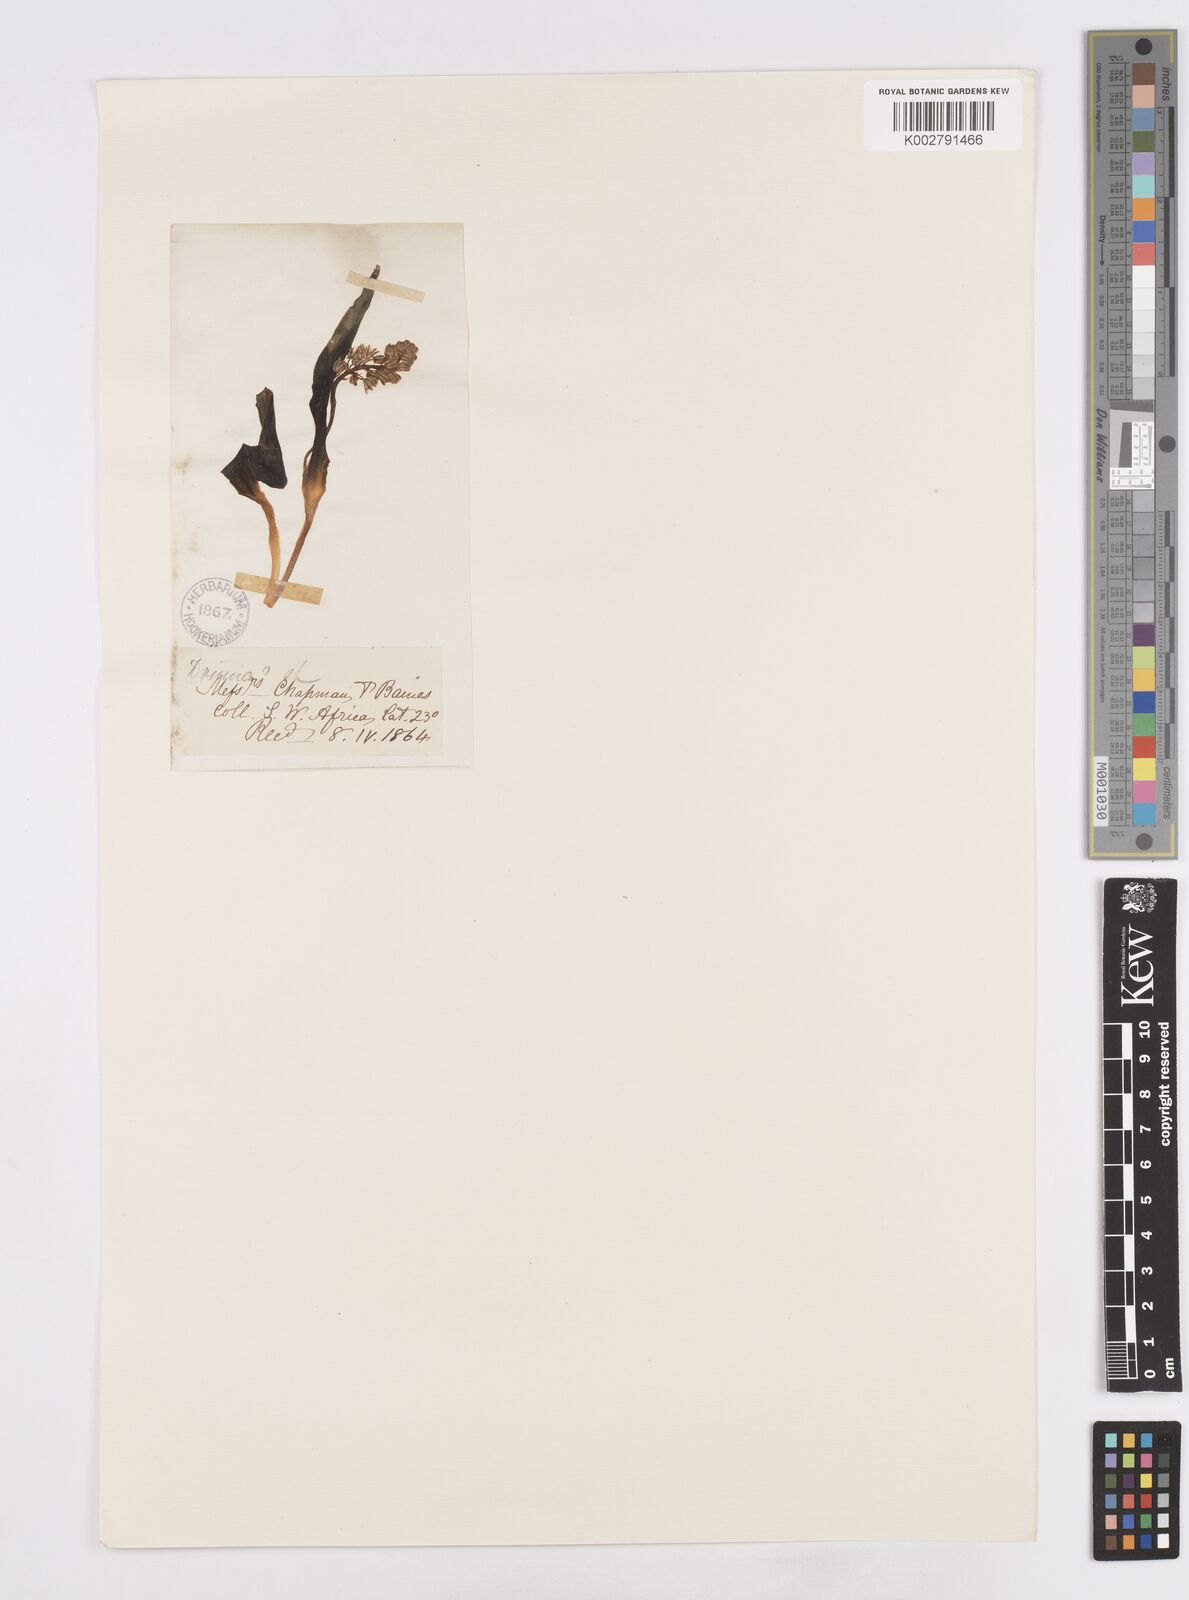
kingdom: Plantae
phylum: Tracheophyta
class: Liliopsida
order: Asparagales
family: Asparagaceae
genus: Scilla
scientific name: Scilla
